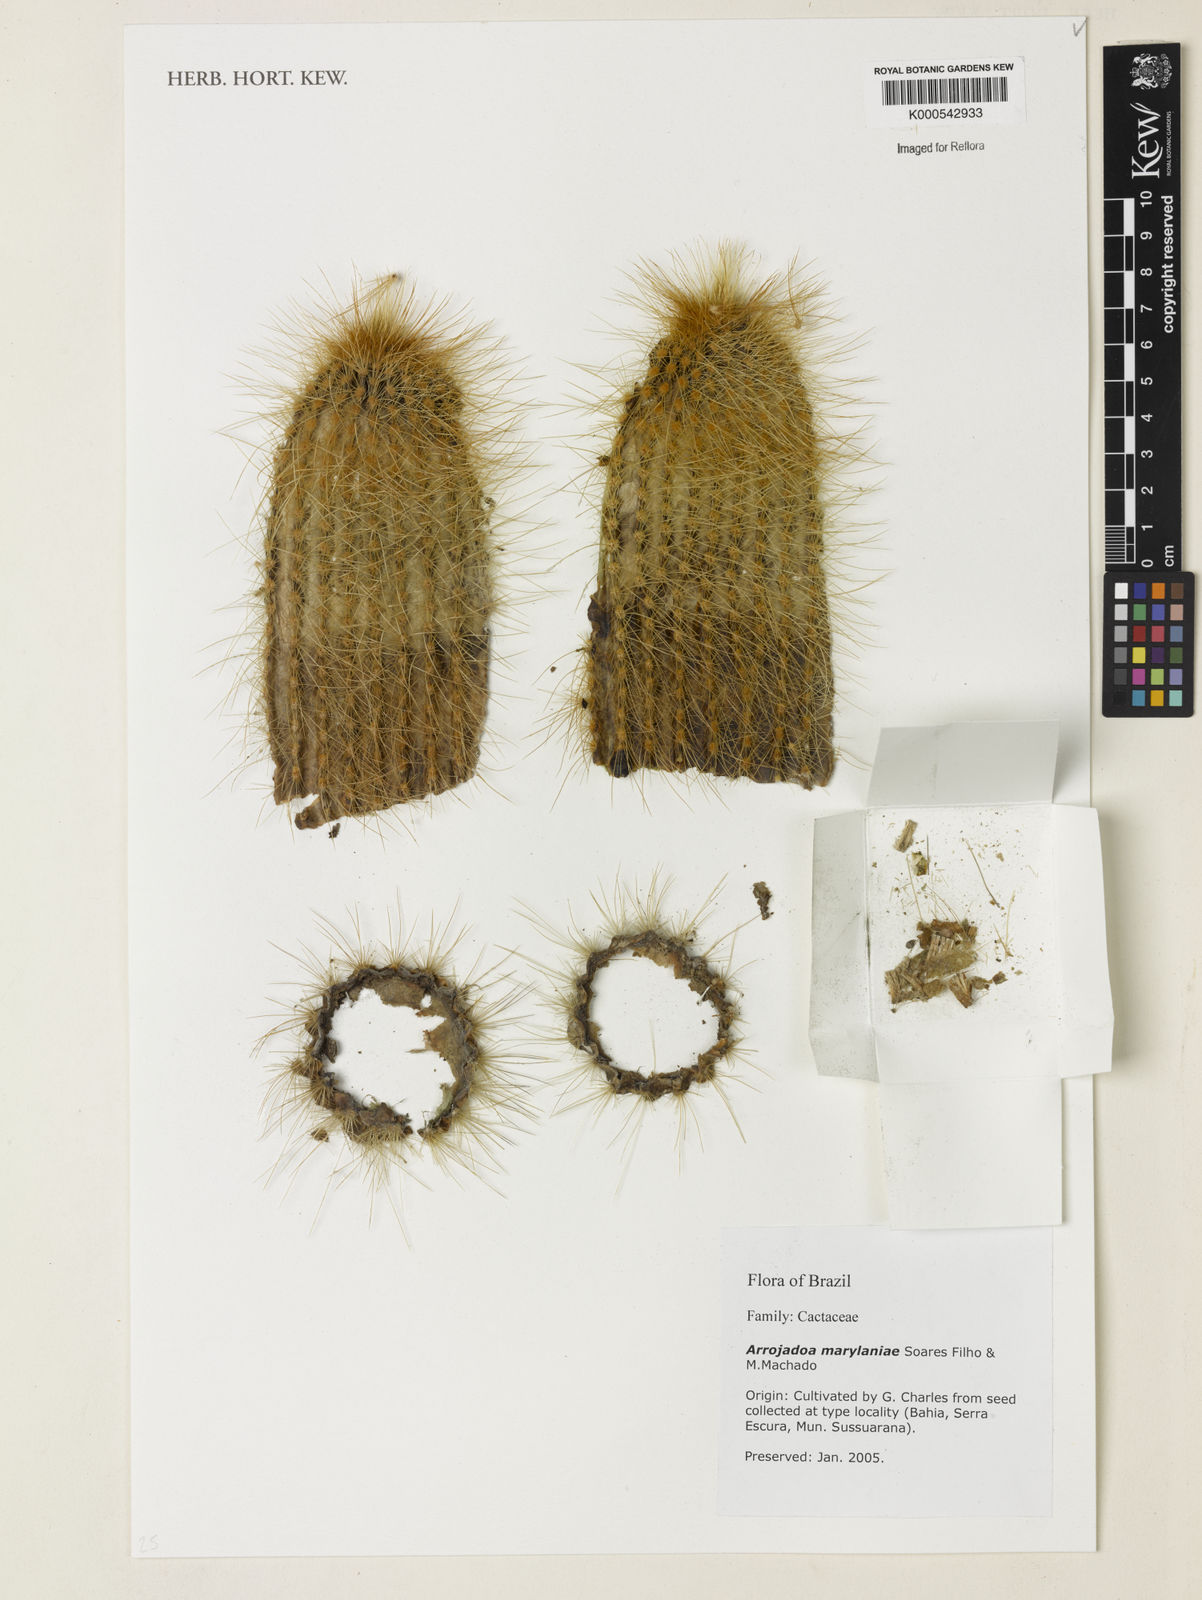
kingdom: Plantae
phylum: Tracheophyta
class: Magnoliopsida
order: Caryophyllales
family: Cactaceae
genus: Arrojadoa
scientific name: Arrojadoa marylaniae
